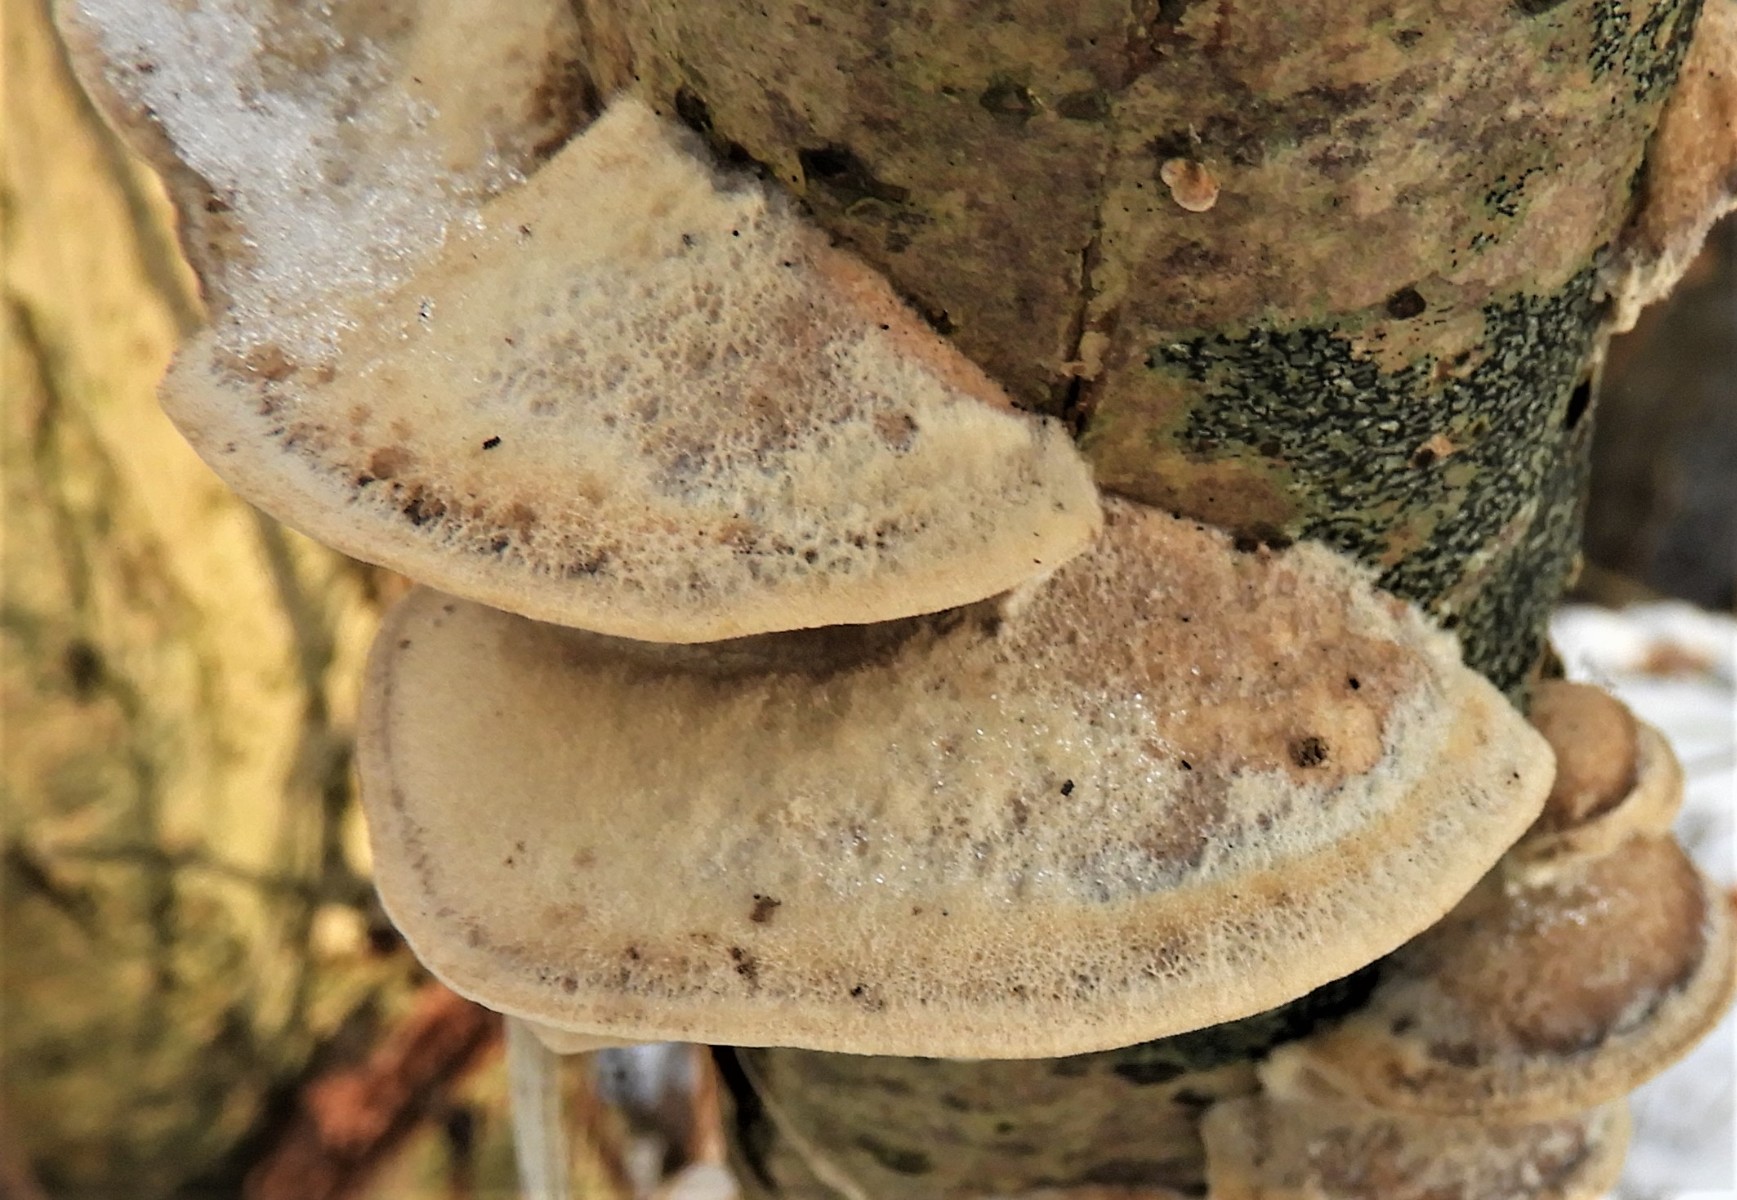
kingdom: Fungi
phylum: Basidiomycota
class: Agaricomycetes
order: Polyporales
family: Phanerochaetaceae
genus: Bjerkandera
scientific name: Bjerkandera
